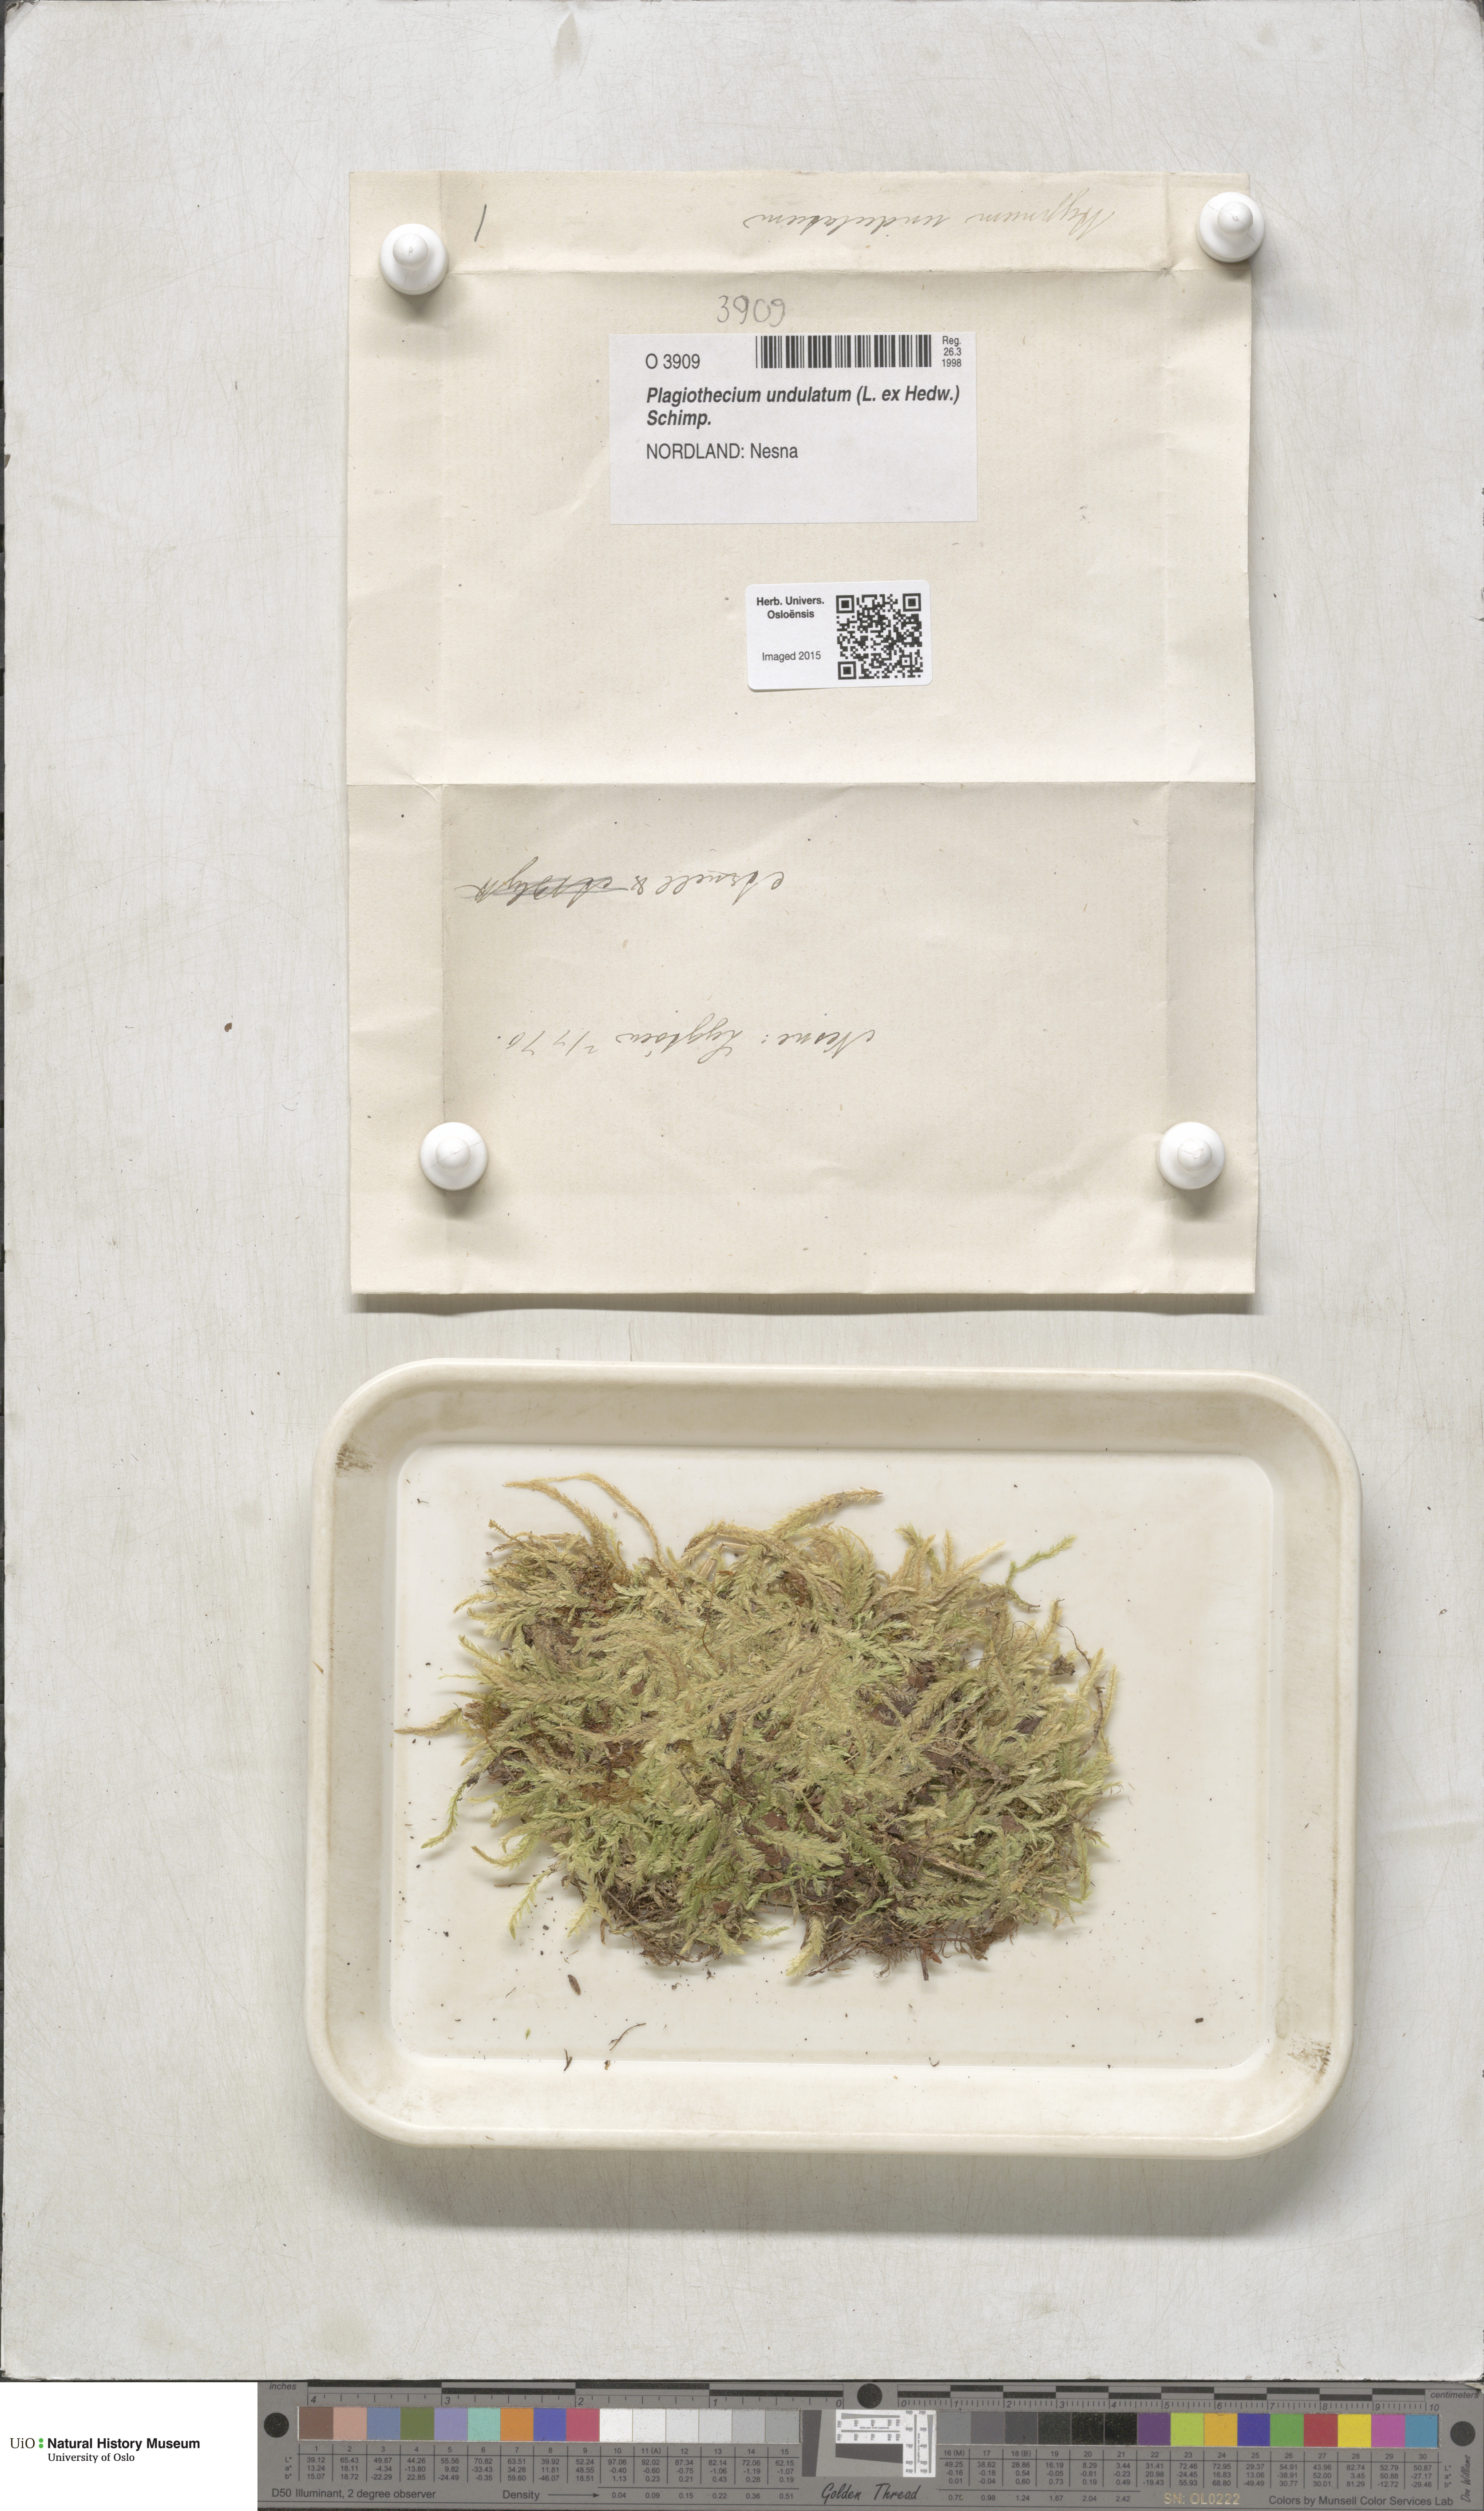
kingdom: Plantae
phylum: Bryophyta
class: Bryopsida
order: Hypnales
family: Plagiotheciaceae
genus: Plagiothecium
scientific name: Plagiothecium undulatum
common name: Waved silk-moss
